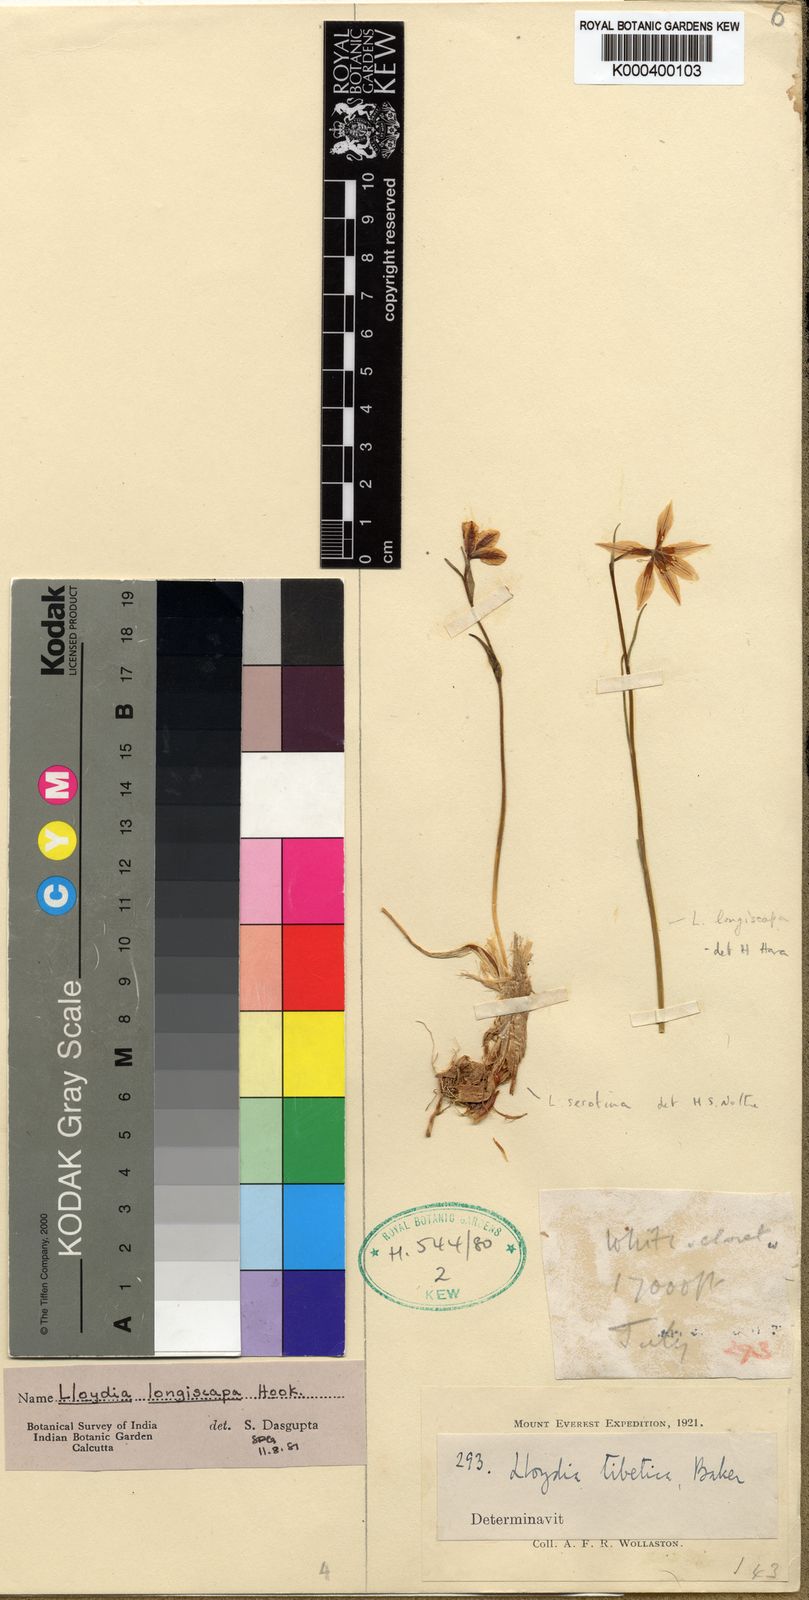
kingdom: Plantae
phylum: Tracheophyta
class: Liliopsida
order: Liliales
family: Liliaceae
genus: Gagea
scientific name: Gagea lasiantha
